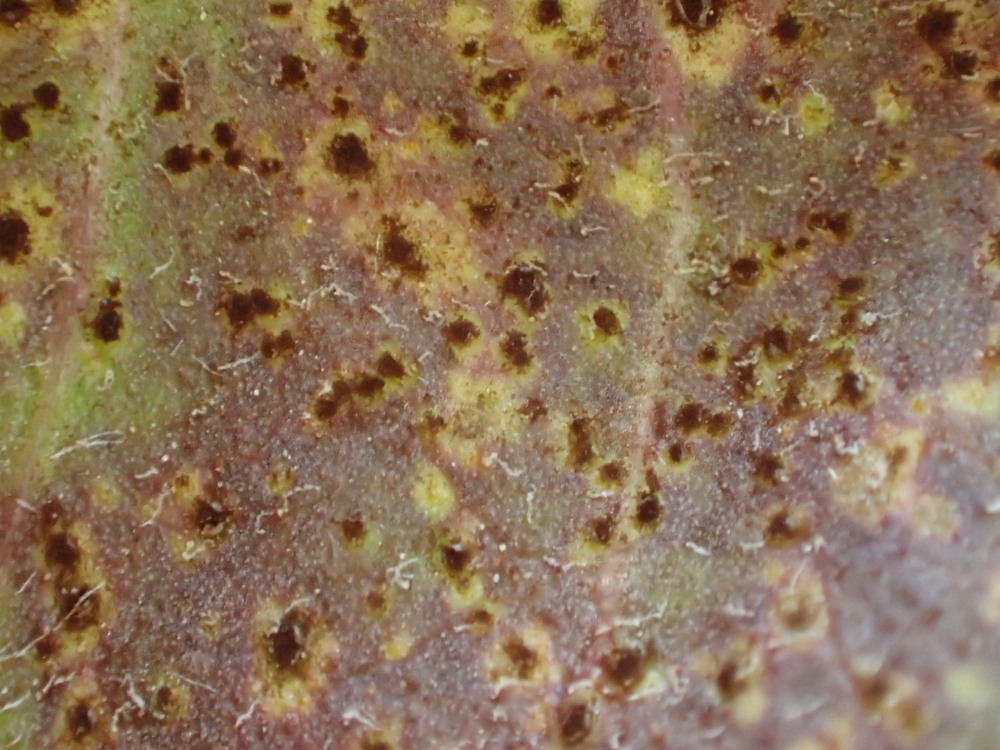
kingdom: Fungi
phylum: Basidiomycota
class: Pucciniomycetes
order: Pucciniales
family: Pucciniaceae
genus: Puccinia
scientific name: Puccinia hieracii
